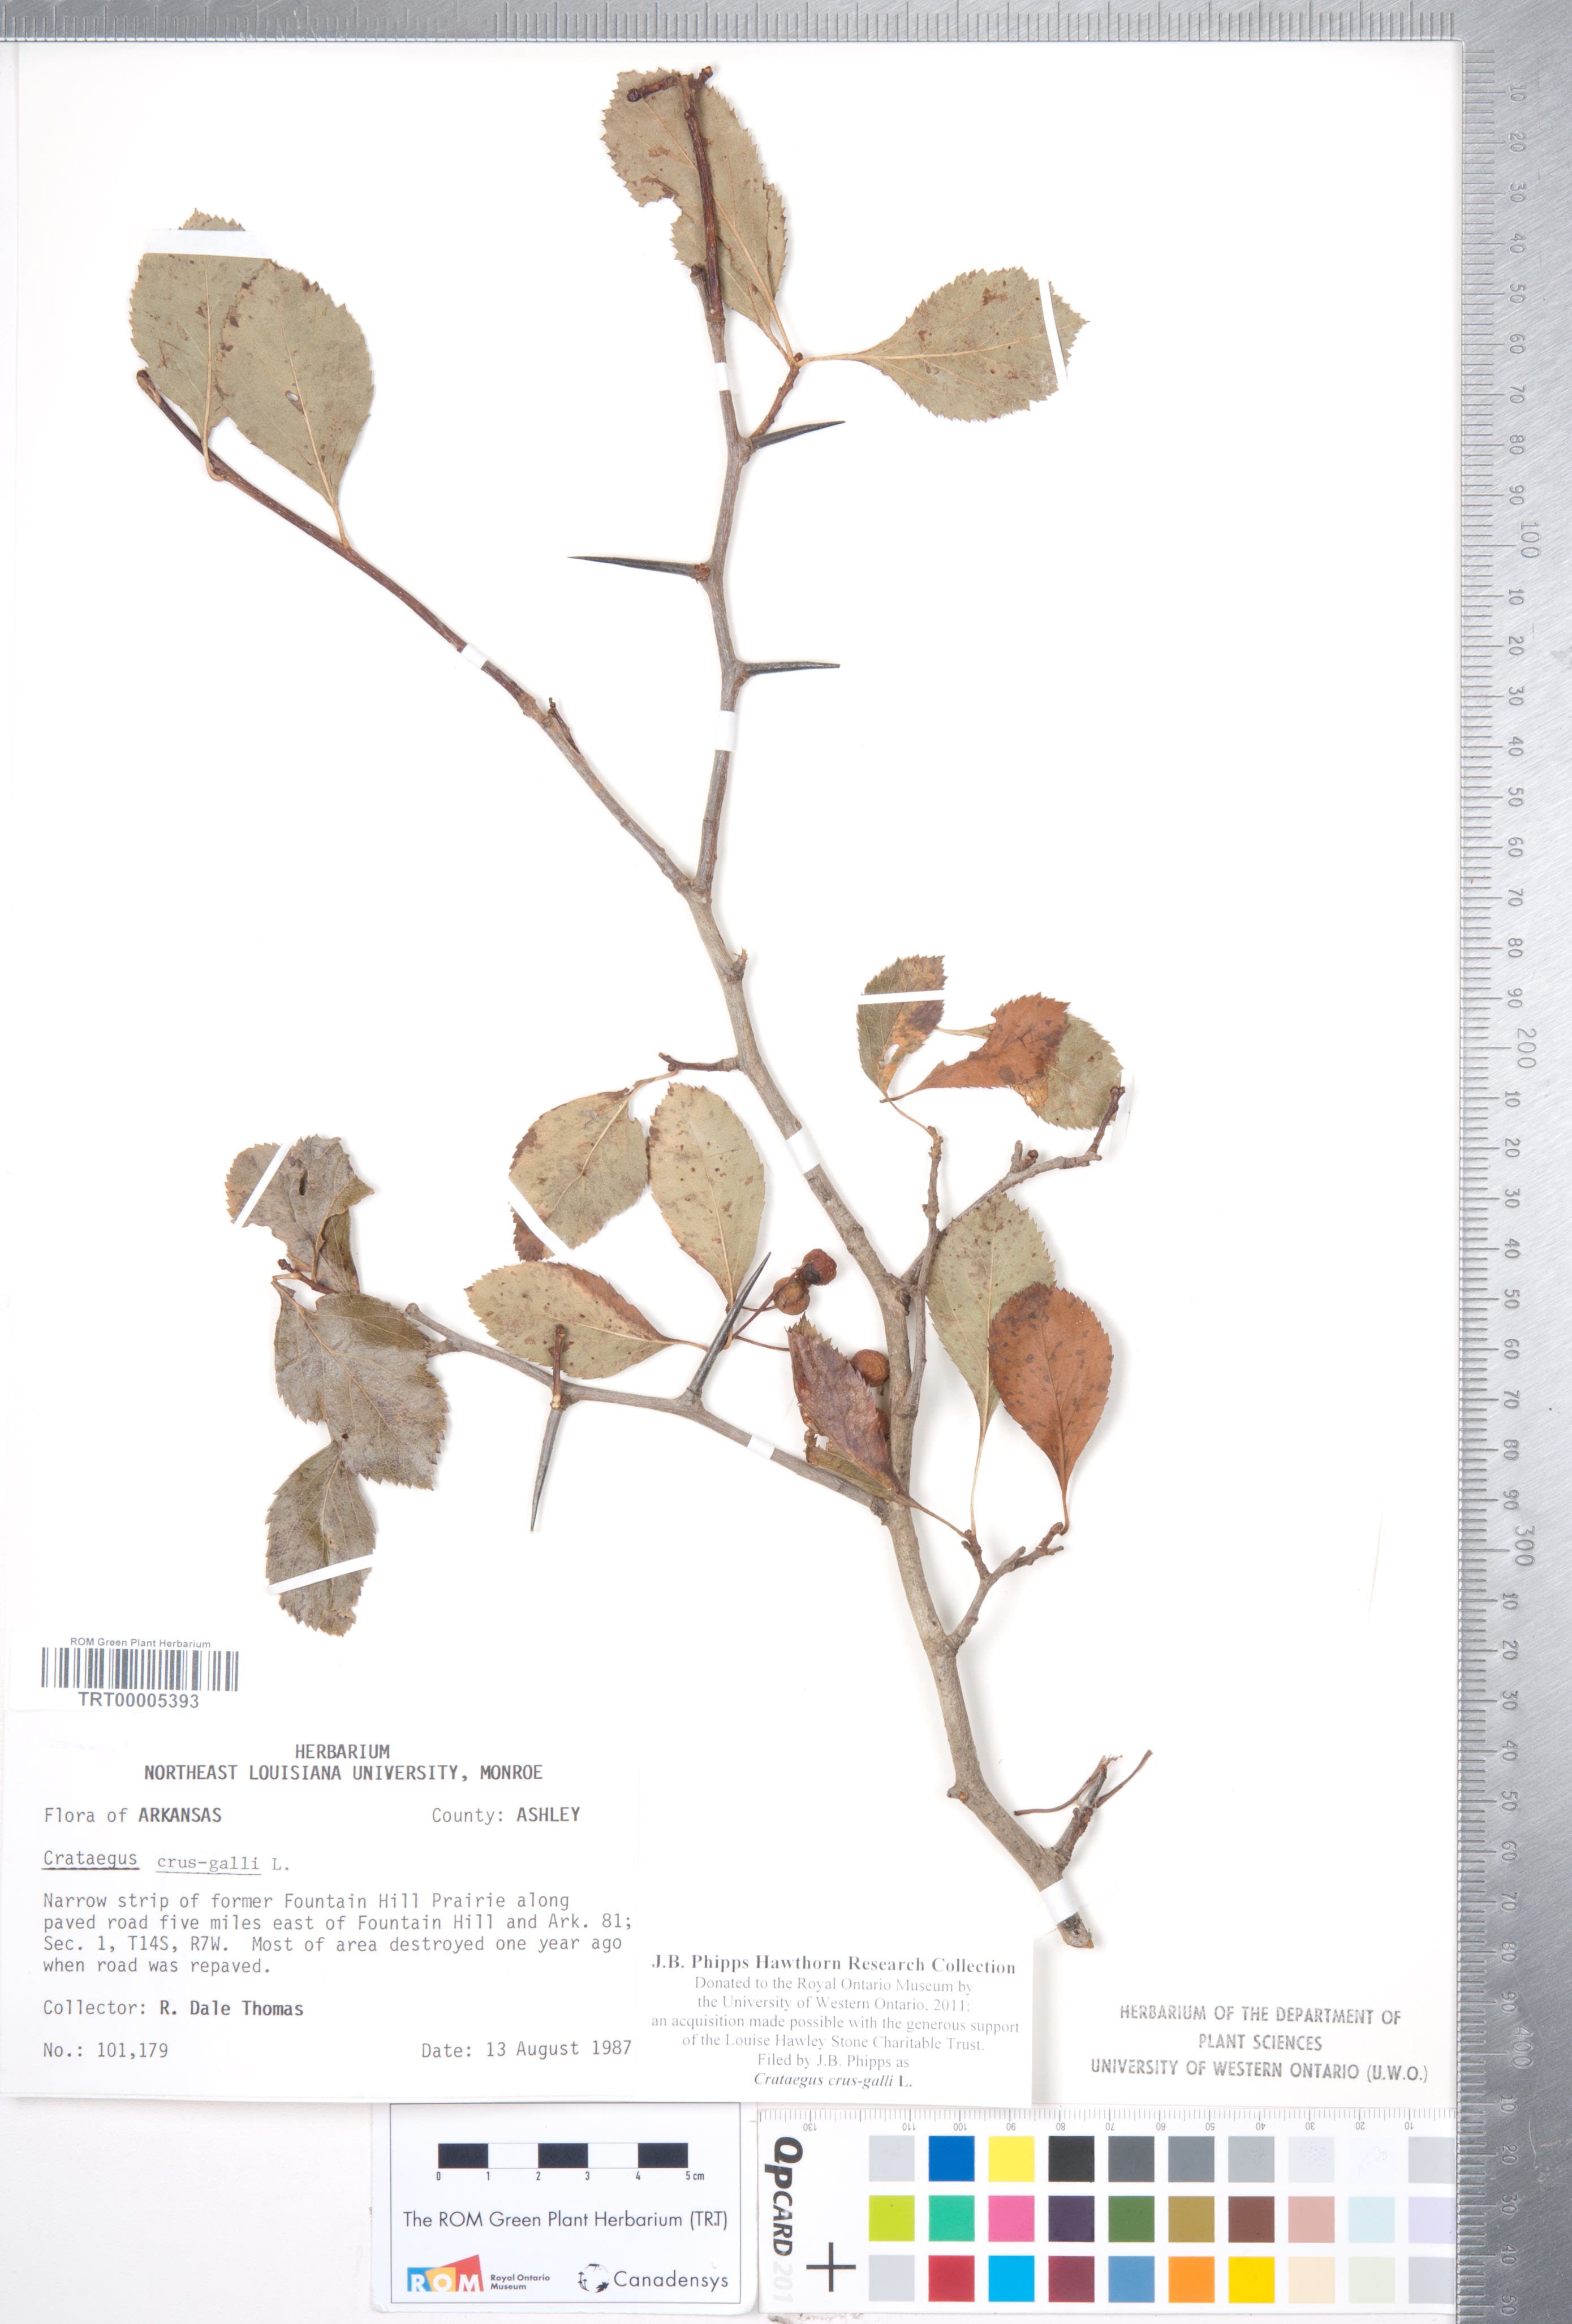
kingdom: Plantae
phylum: Tracheophyta
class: Magnoliopsida
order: Rosales
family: Rosaceae
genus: Crataegus
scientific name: Crataegus crus-galli
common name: Cockspurthorn
